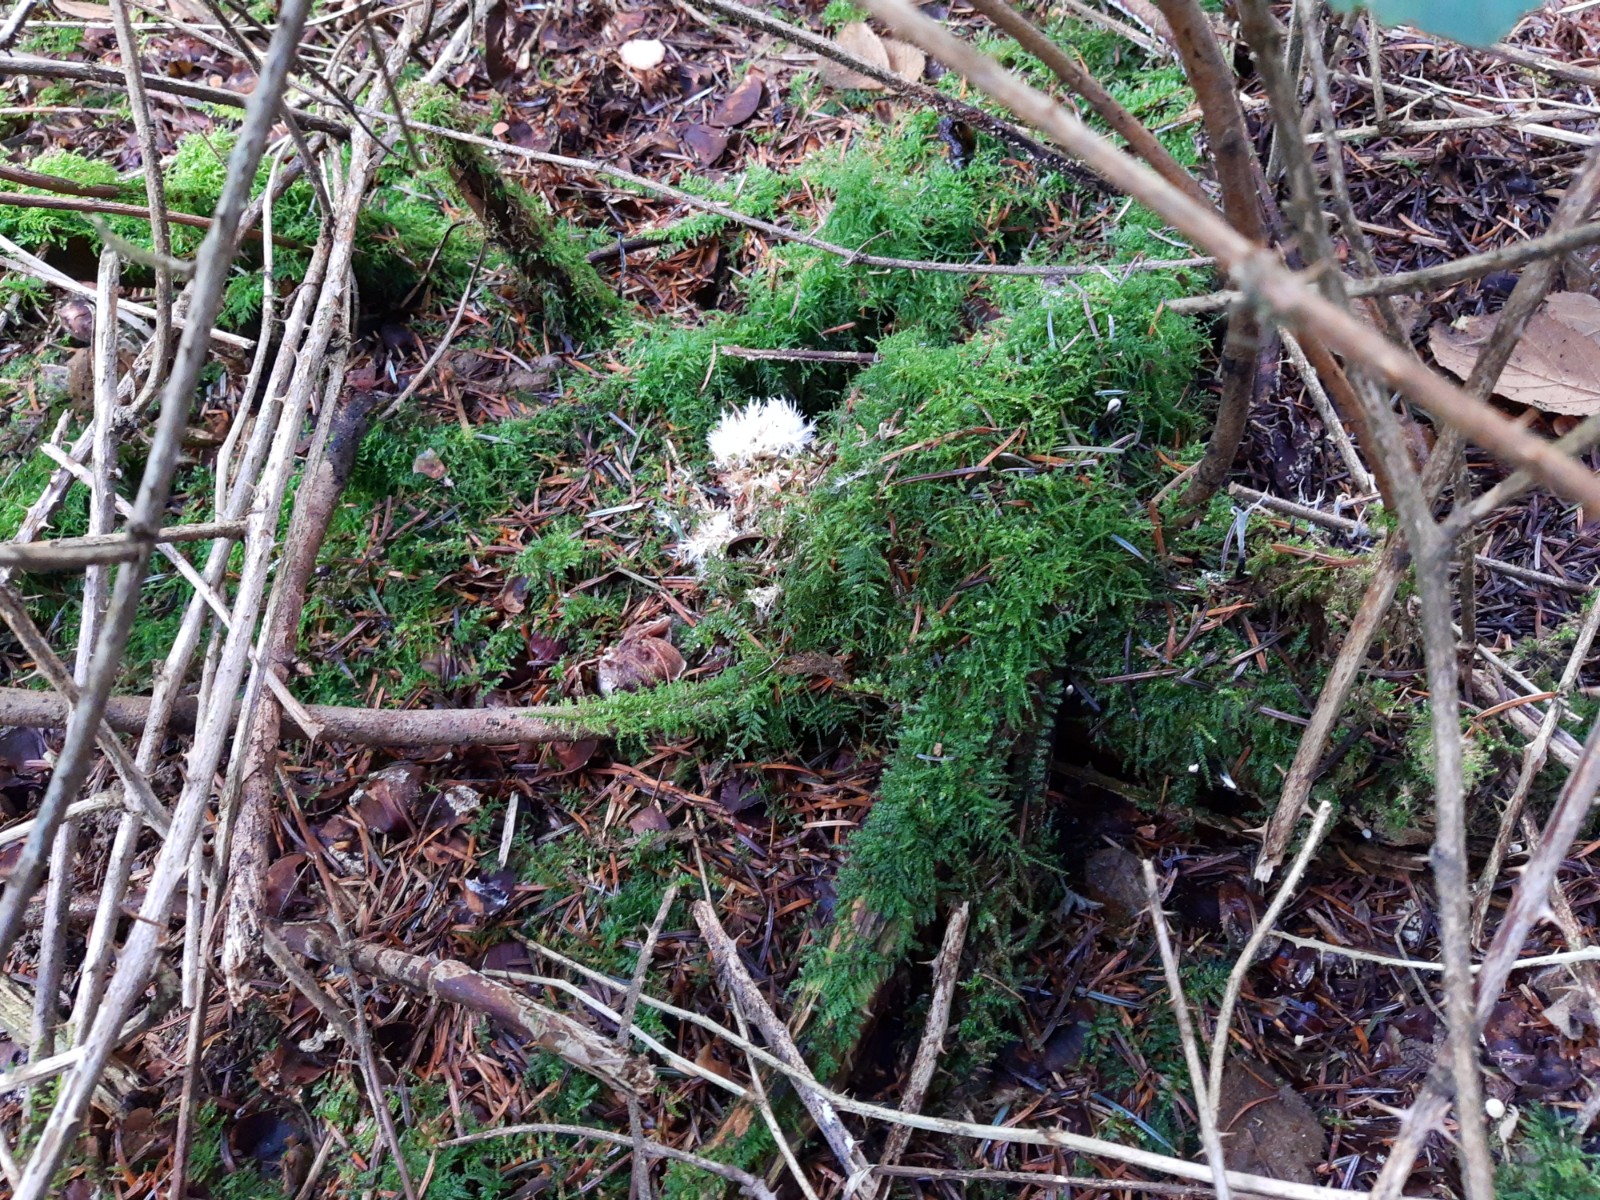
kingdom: Fungi
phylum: Basidiomycota
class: Agaricomycetes
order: Agaricales
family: Pterulaceae
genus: Pterula
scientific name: Pterula multifida
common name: busket fjerkølle
